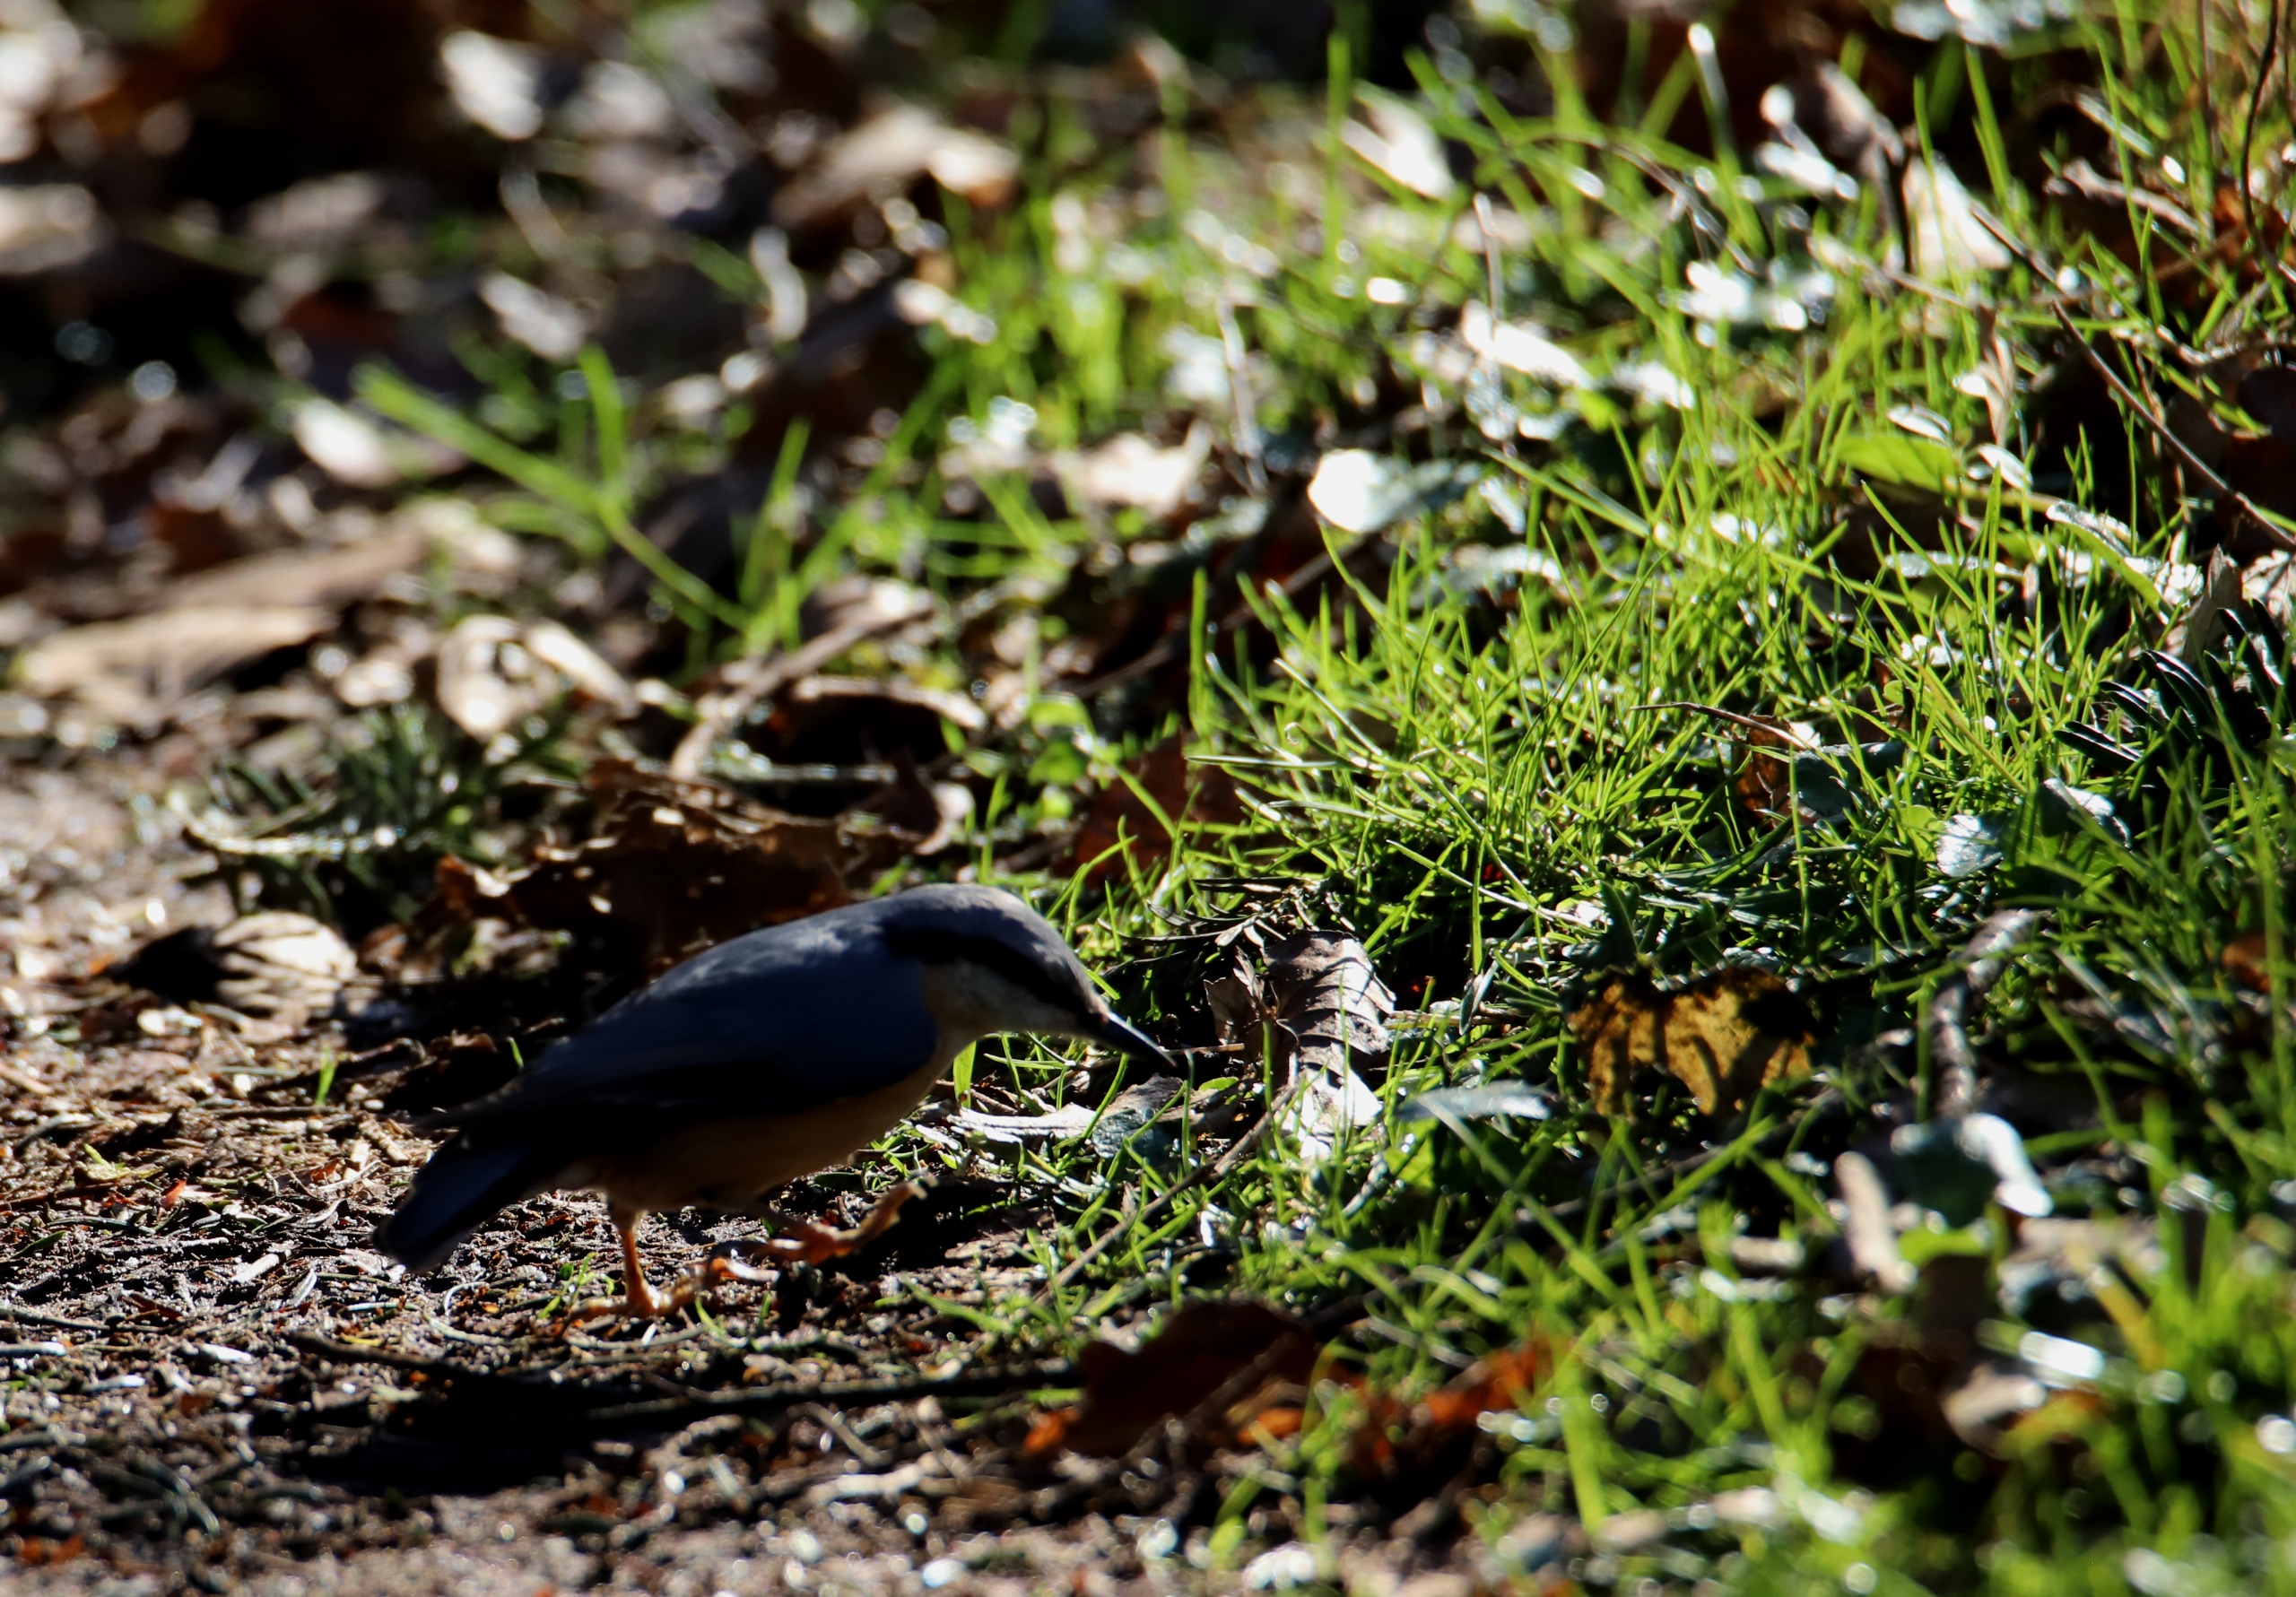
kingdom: Animalia
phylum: Chordata
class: Aves
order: Passeriformes
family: Sittidae
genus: Sitta
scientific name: Sitta europaea
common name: Mørkbuget spætmejse
